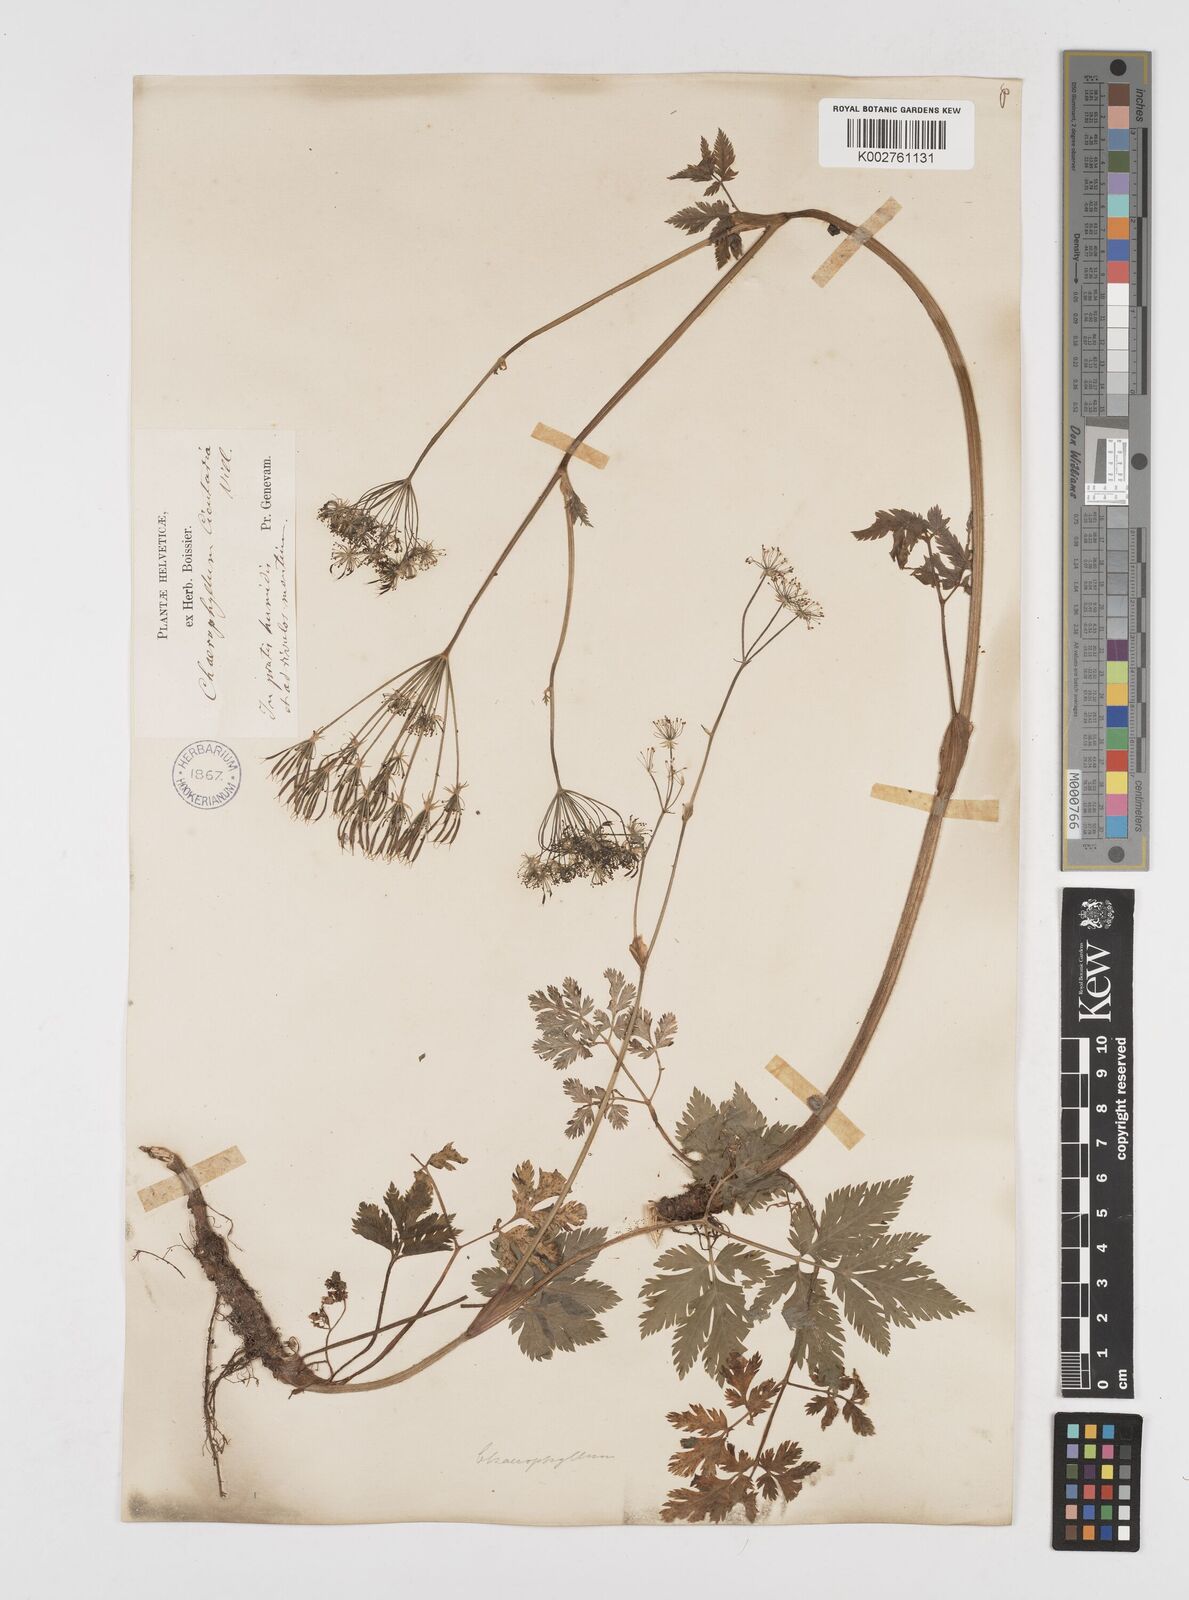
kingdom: Plantae
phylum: Tracheophyta
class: Magnoliopsida
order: Apiales
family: Apiaceae
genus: Chaerophyllum
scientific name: Chaerophyllum hirsutum
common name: Hairy chervil
